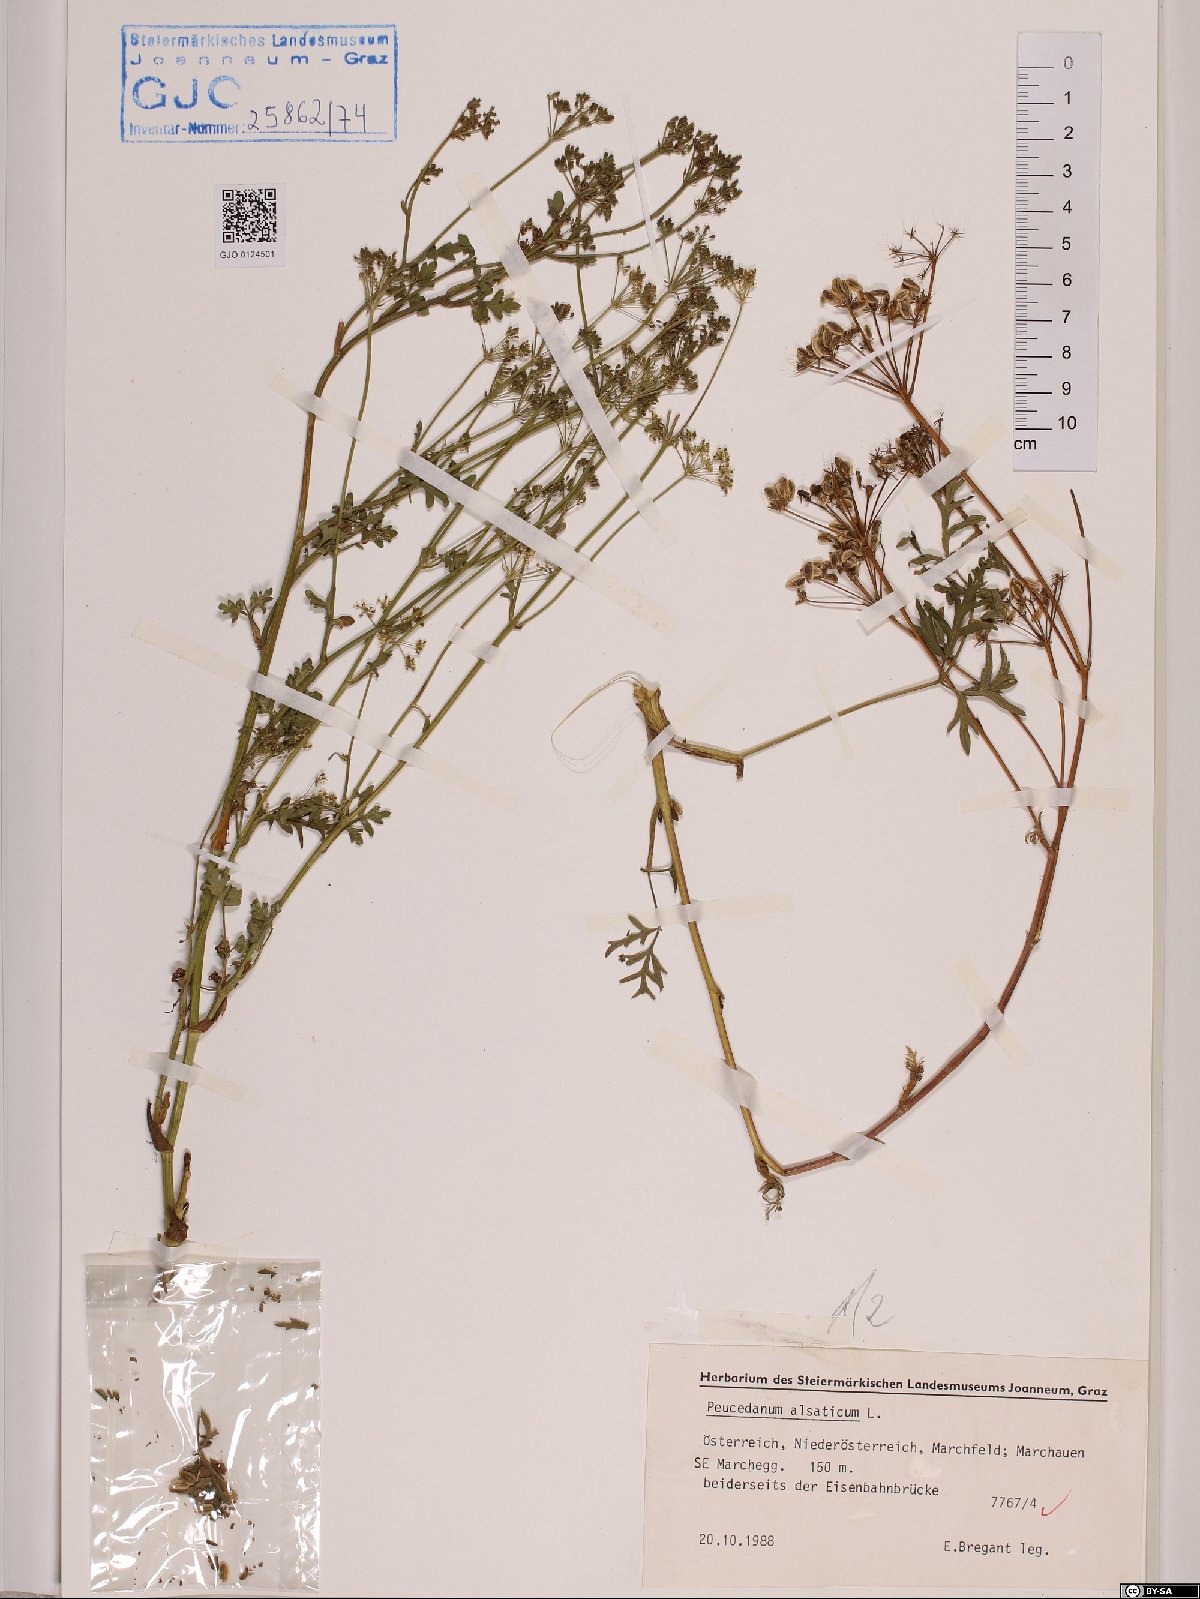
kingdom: Plantae
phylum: Tracheophyta
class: Magnoliopsida
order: Apiales
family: Apiaceae
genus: Xanthoselinum
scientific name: Xanthoselinum alsaticum
